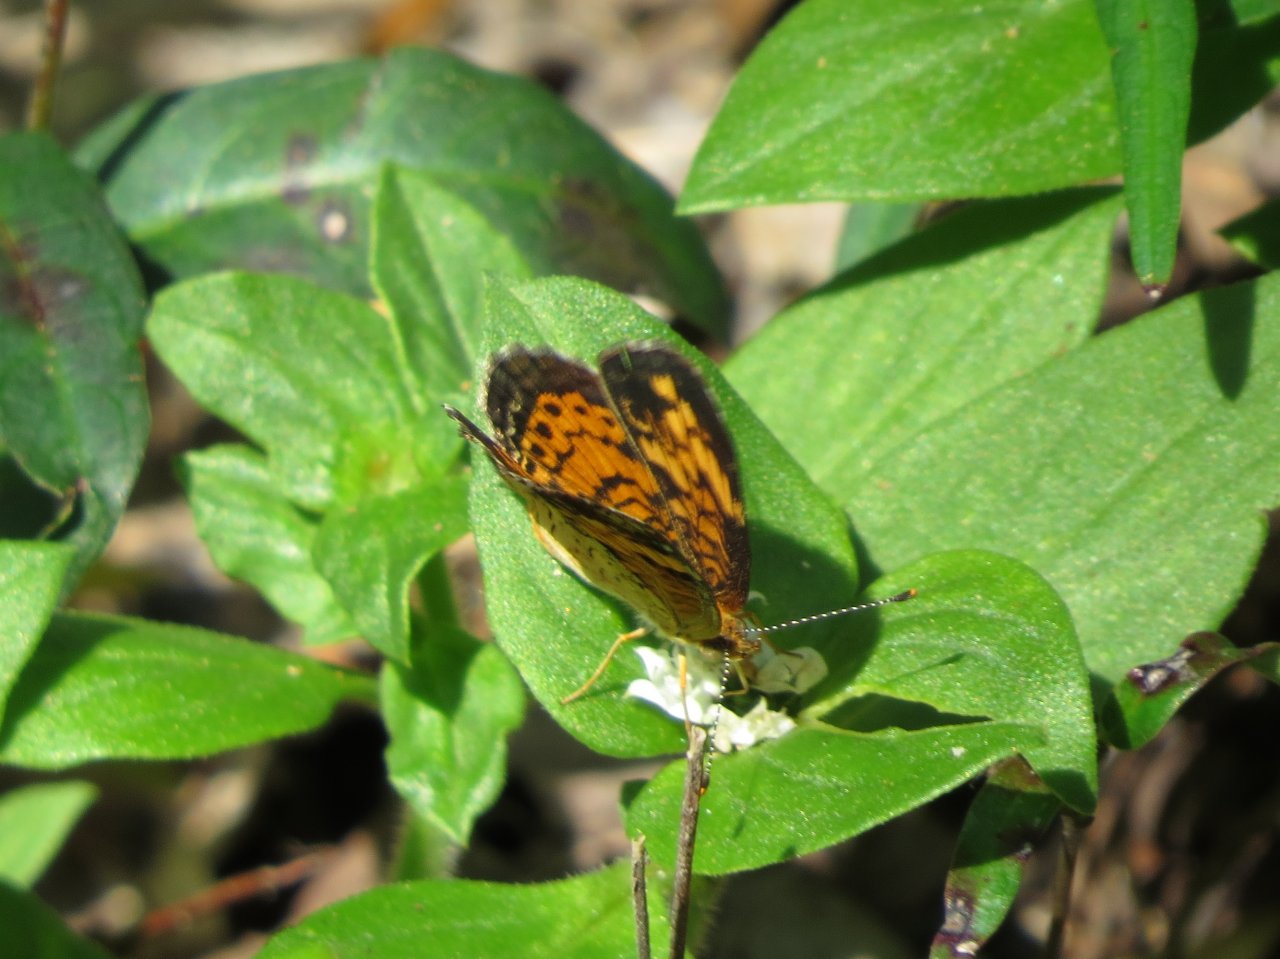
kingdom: Animalia
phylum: Arthropoda
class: Insecta
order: Lepidoptera
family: Nymphalidae
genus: Phyciodes
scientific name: Phyciodes tharos
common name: Pearl Crescent
